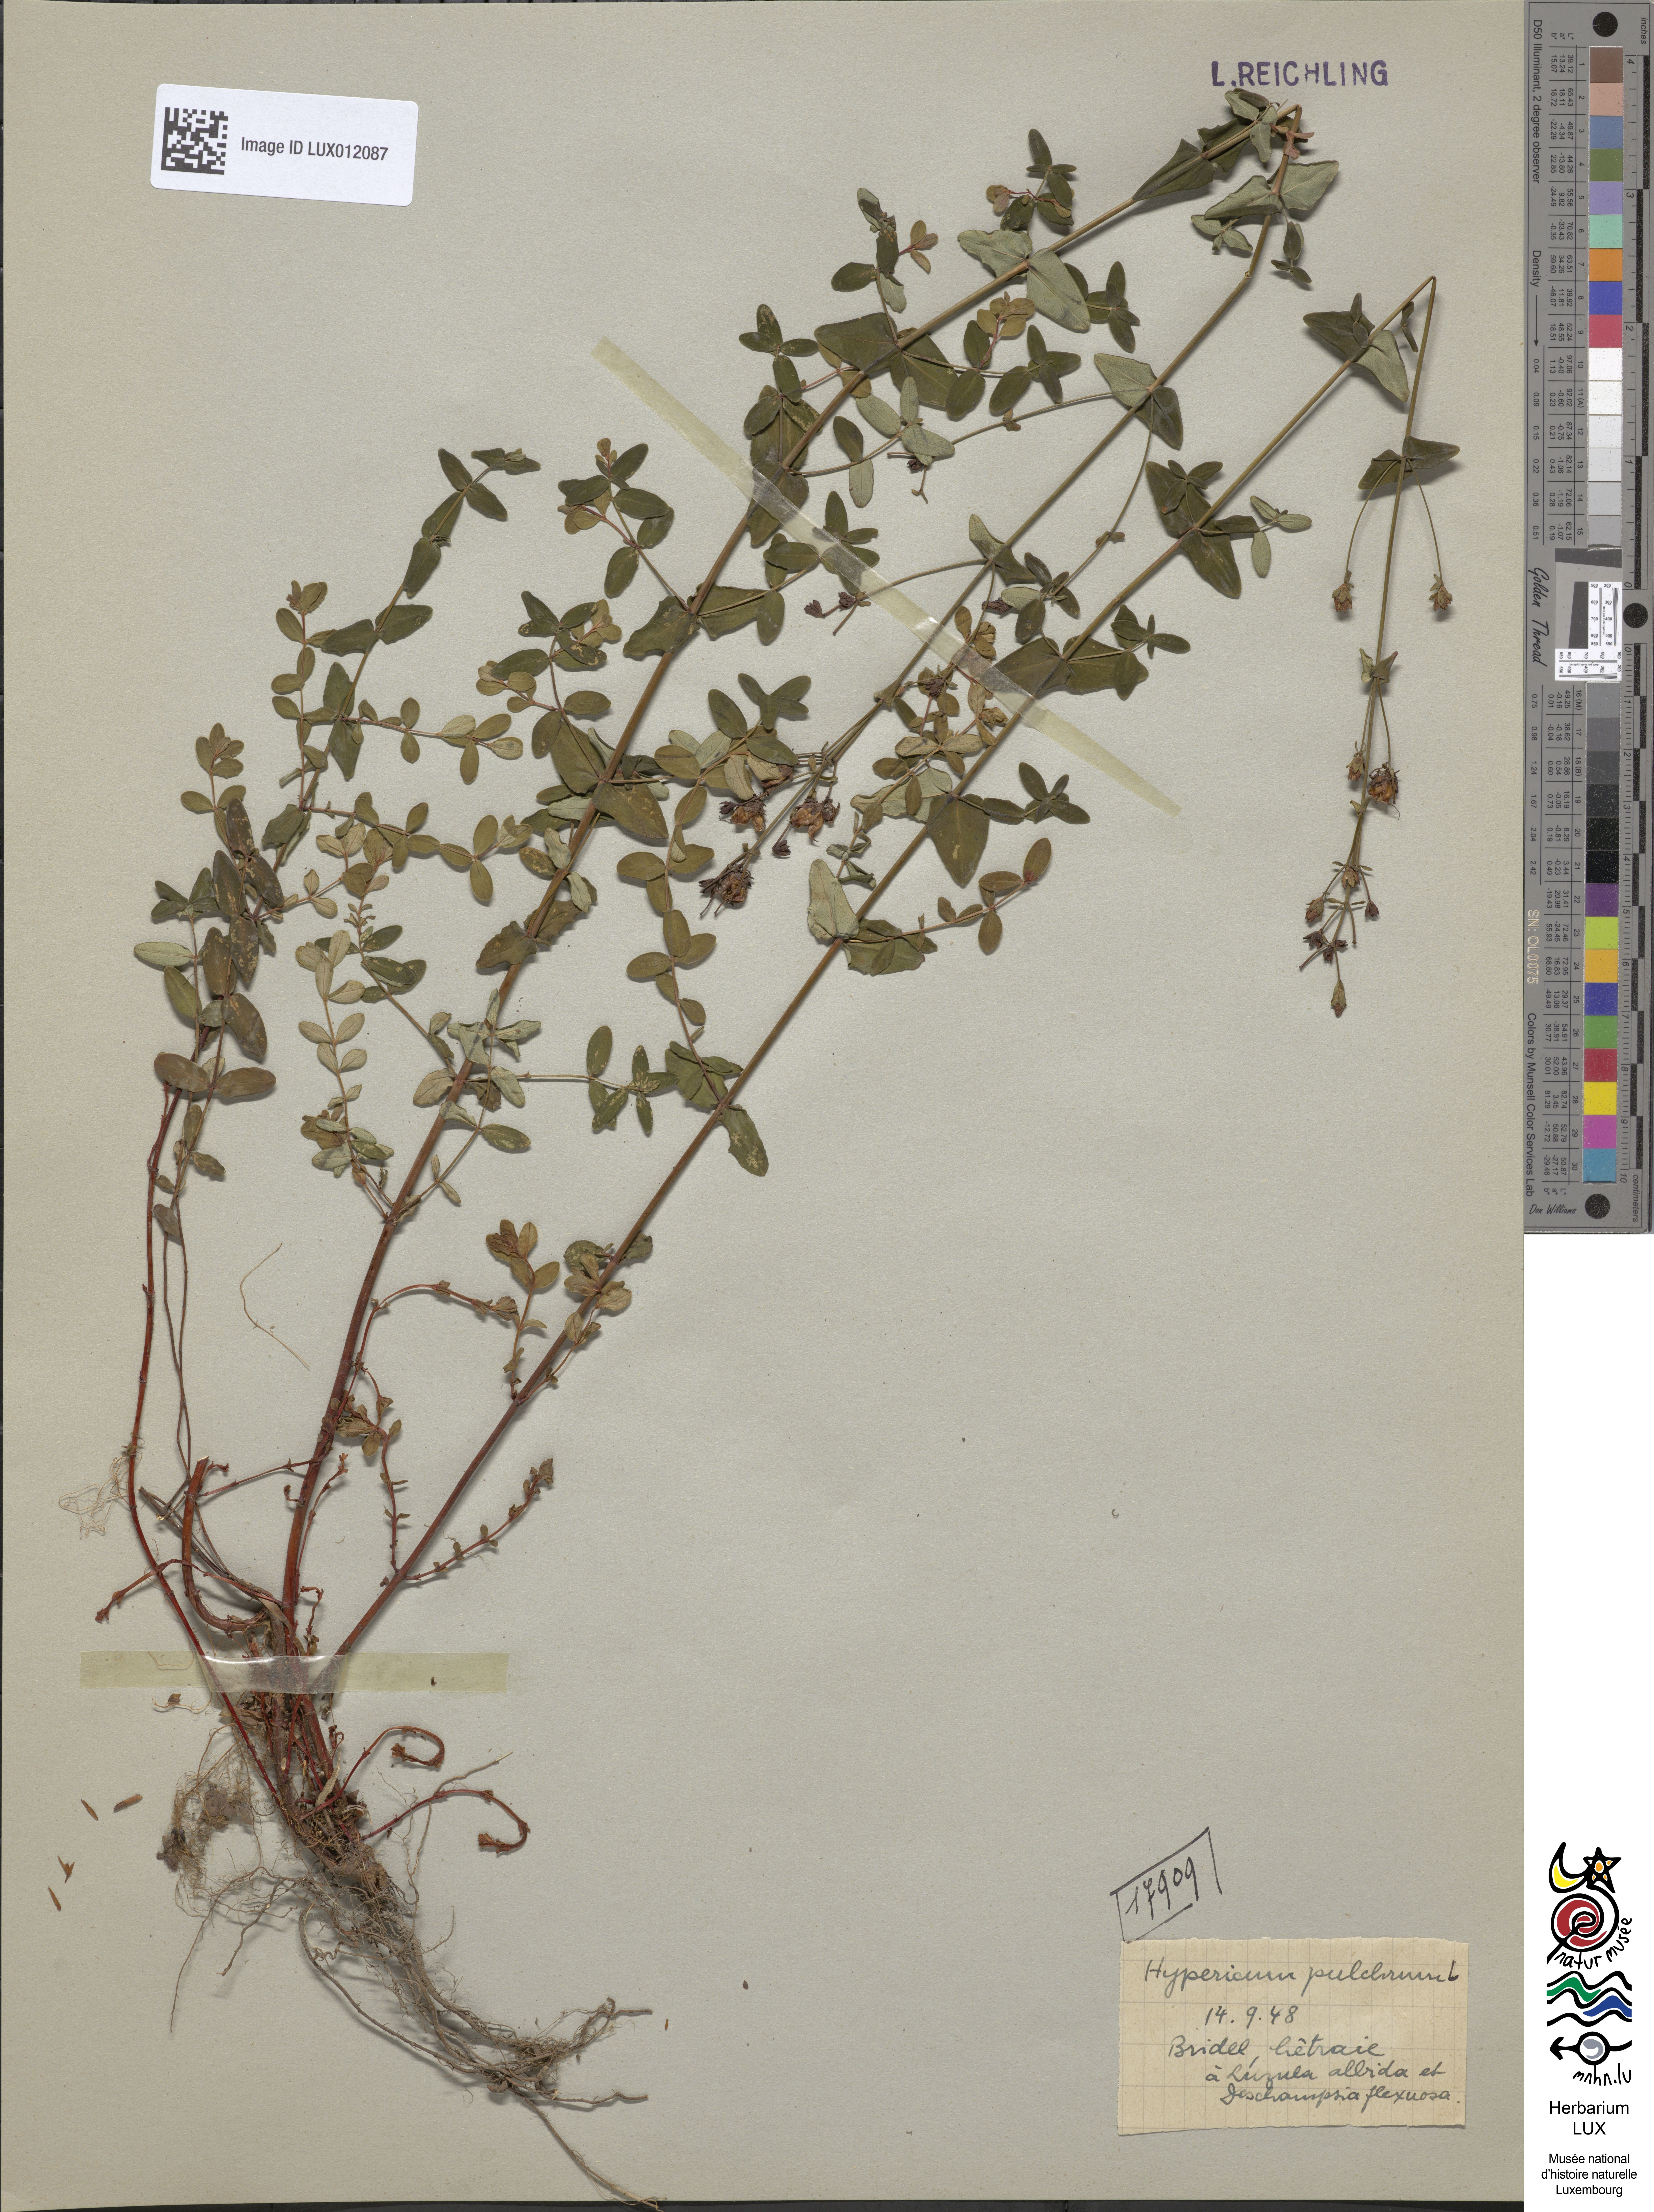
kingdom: Plantae
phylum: Tracheophyta
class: Magnoliopsida
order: Malpighiales
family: Hypericaceae
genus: Hypericum
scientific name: Hypericum pulchrum
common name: Slender st. john's-wort
